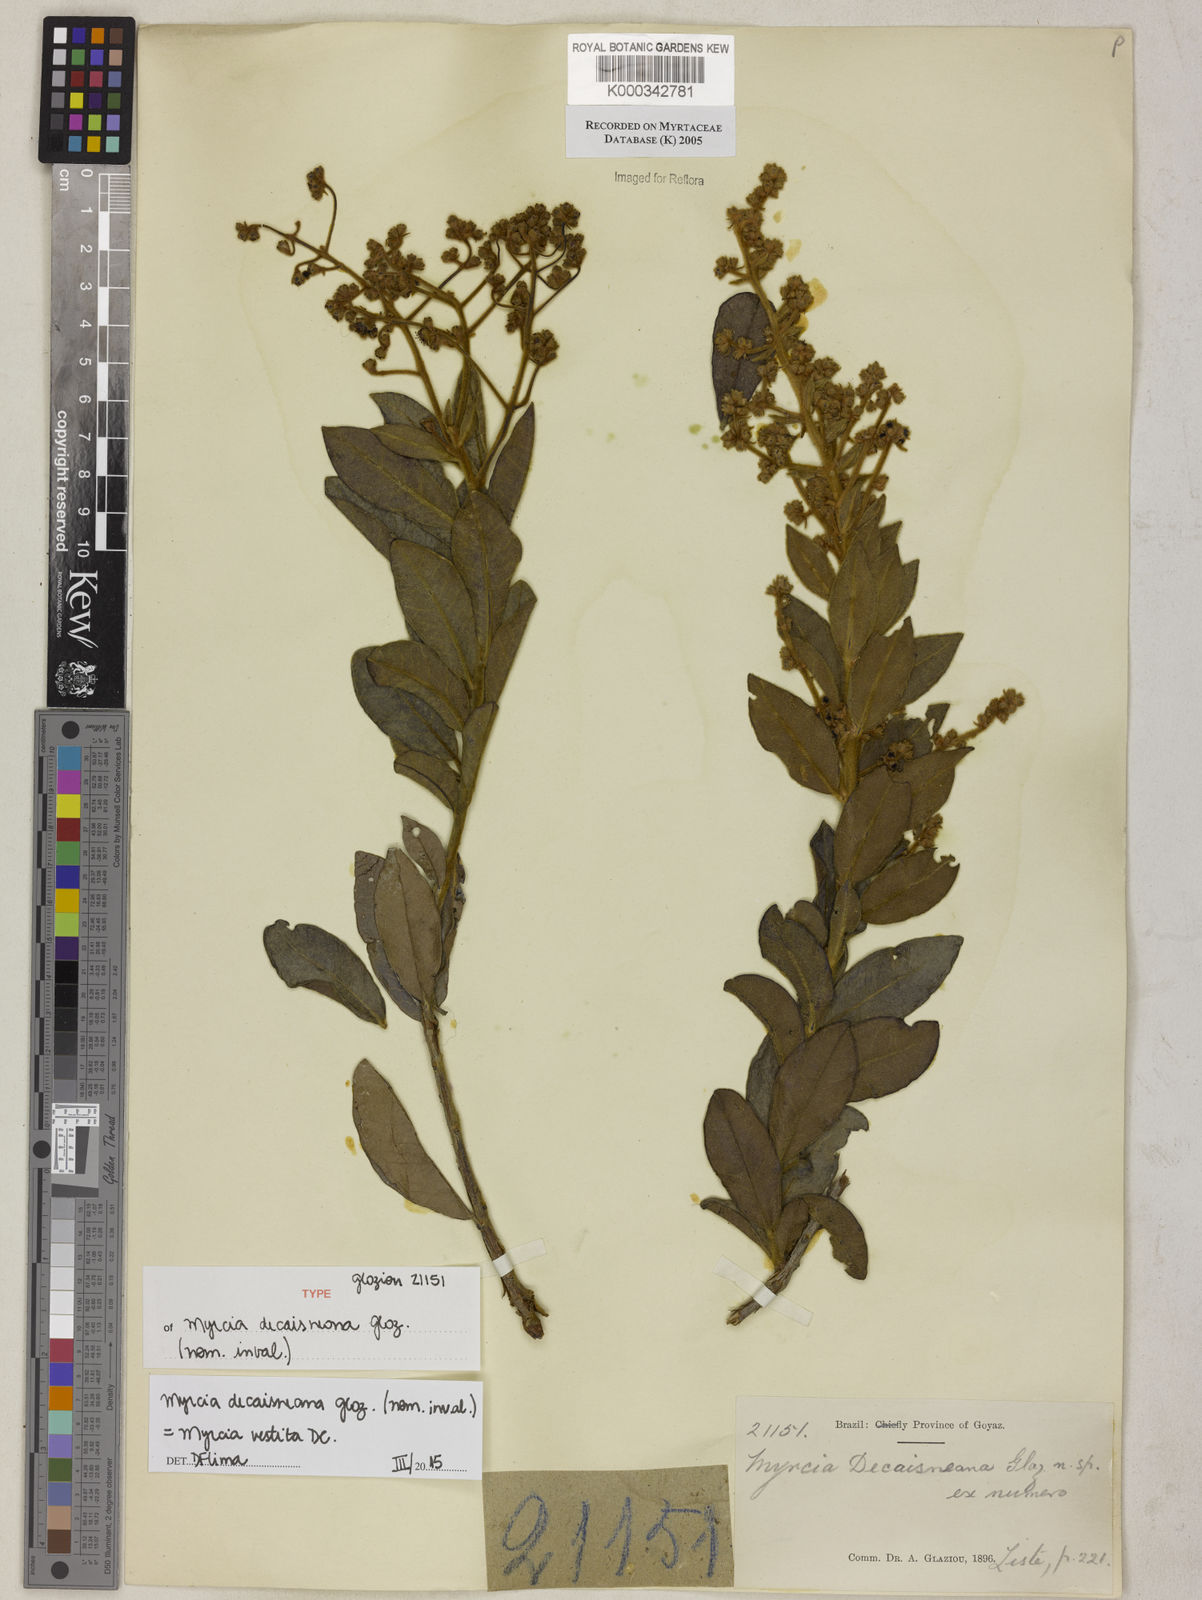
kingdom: Plantae
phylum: Tracheophyta
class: Magnoliopsida
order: Myrtales
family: Myrtaceae
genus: Myrcia
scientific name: Myrcia
